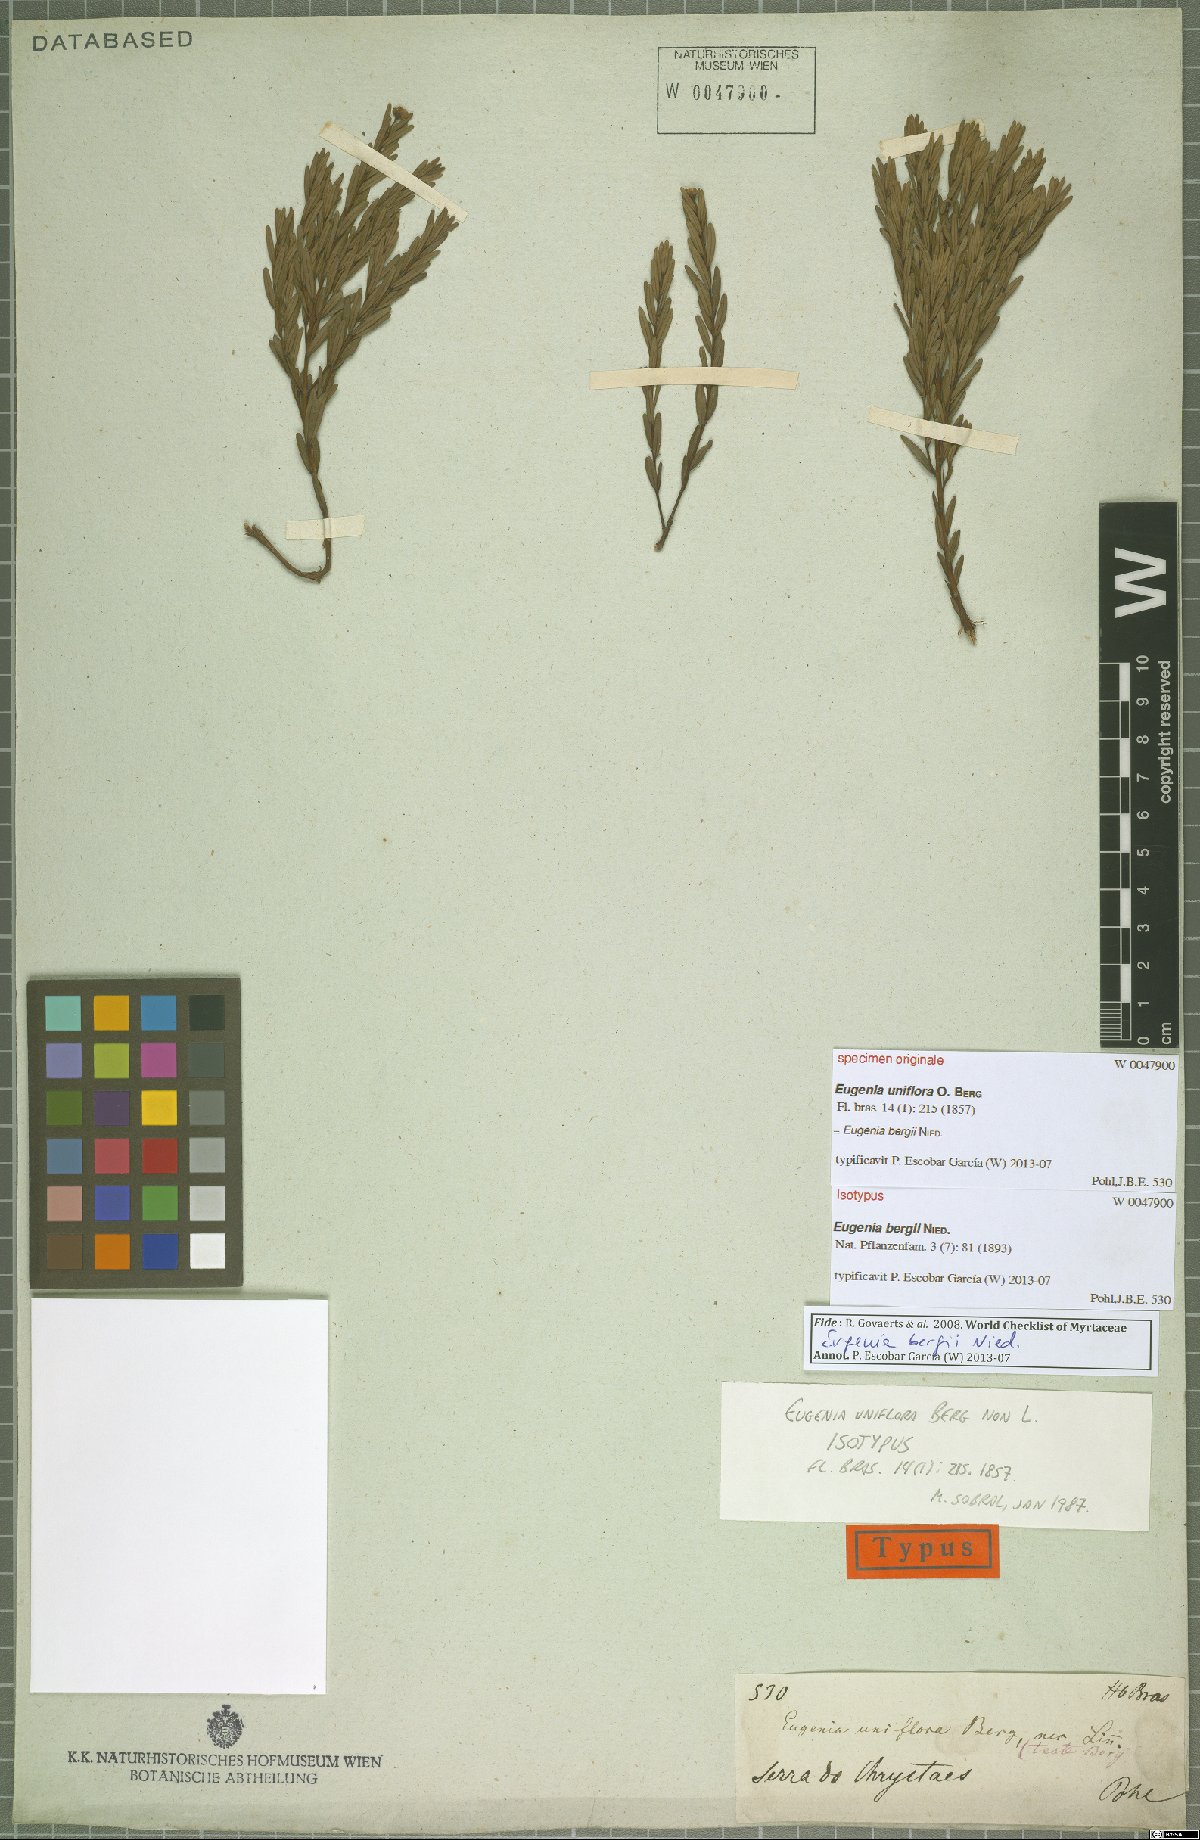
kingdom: Plantae
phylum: Tracheophyta
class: Magnoliopsida
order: Myrtales
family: Myrtaceae
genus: Eugenia
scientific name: Eugenia bergii
